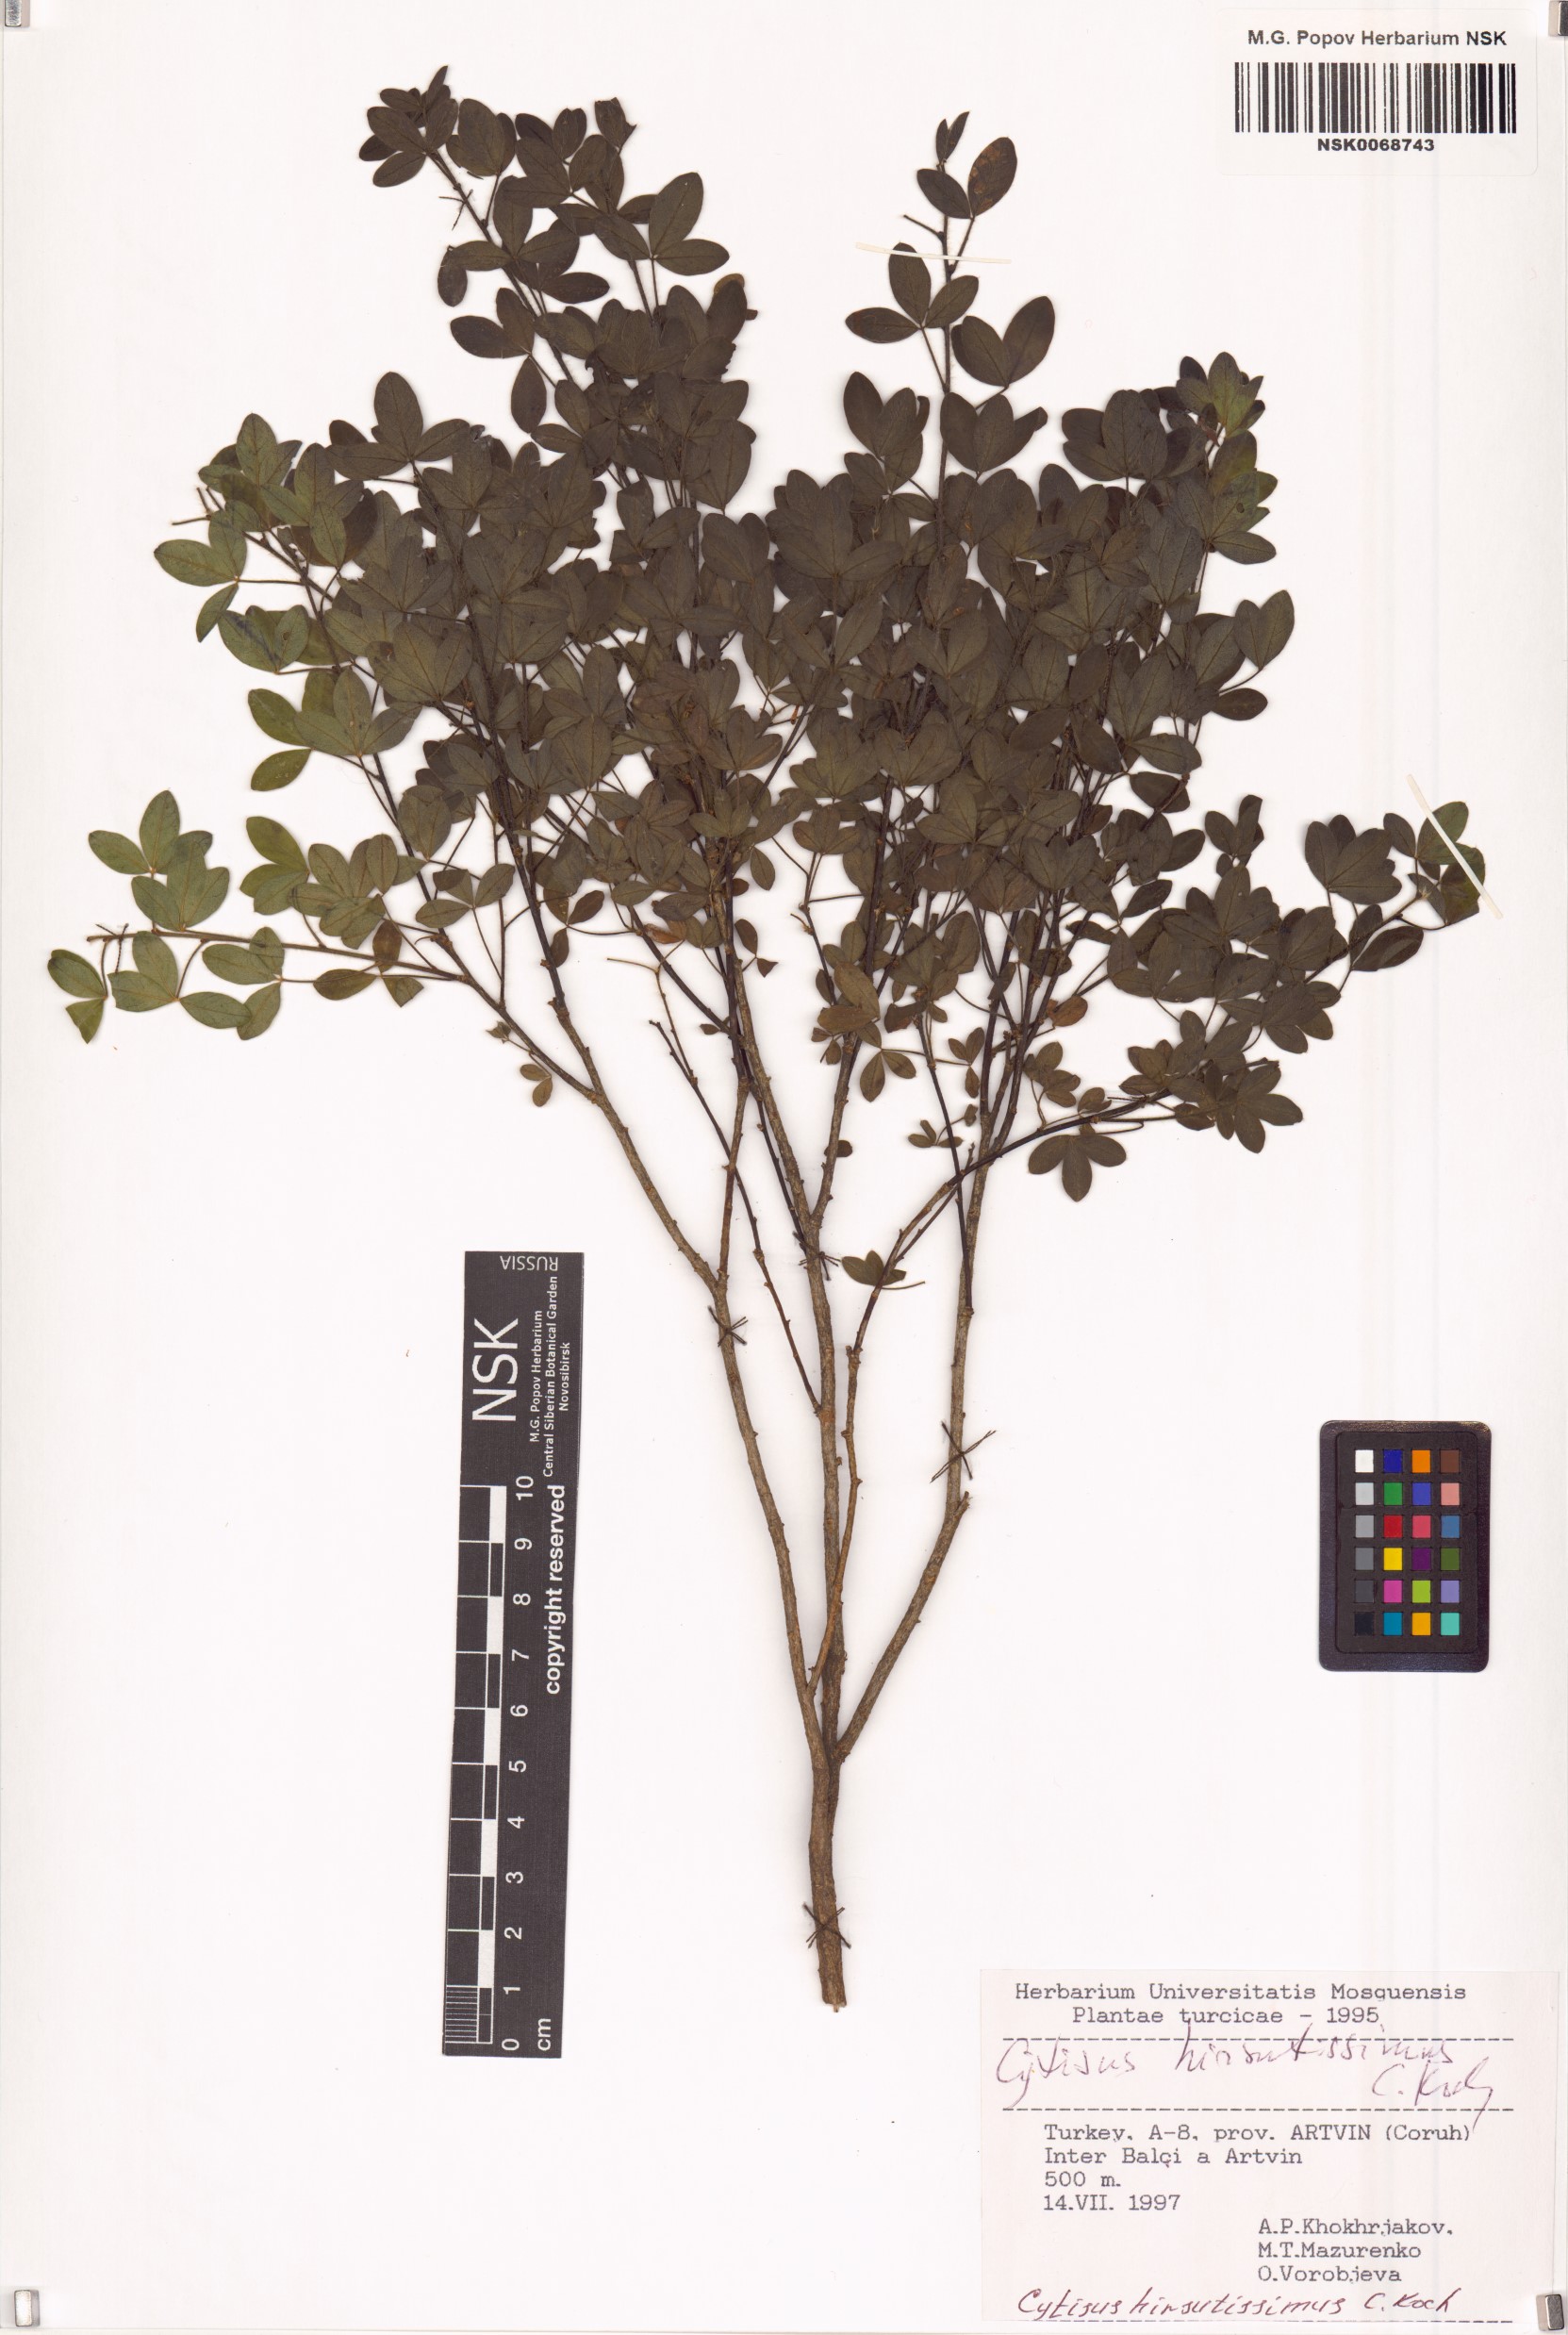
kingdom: Plantae
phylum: Tracheophyta
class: Magnoliopsida
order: Fabales
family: Fabaceae
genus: Chamaecytisus
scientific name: Chamaecytisus triflorus
